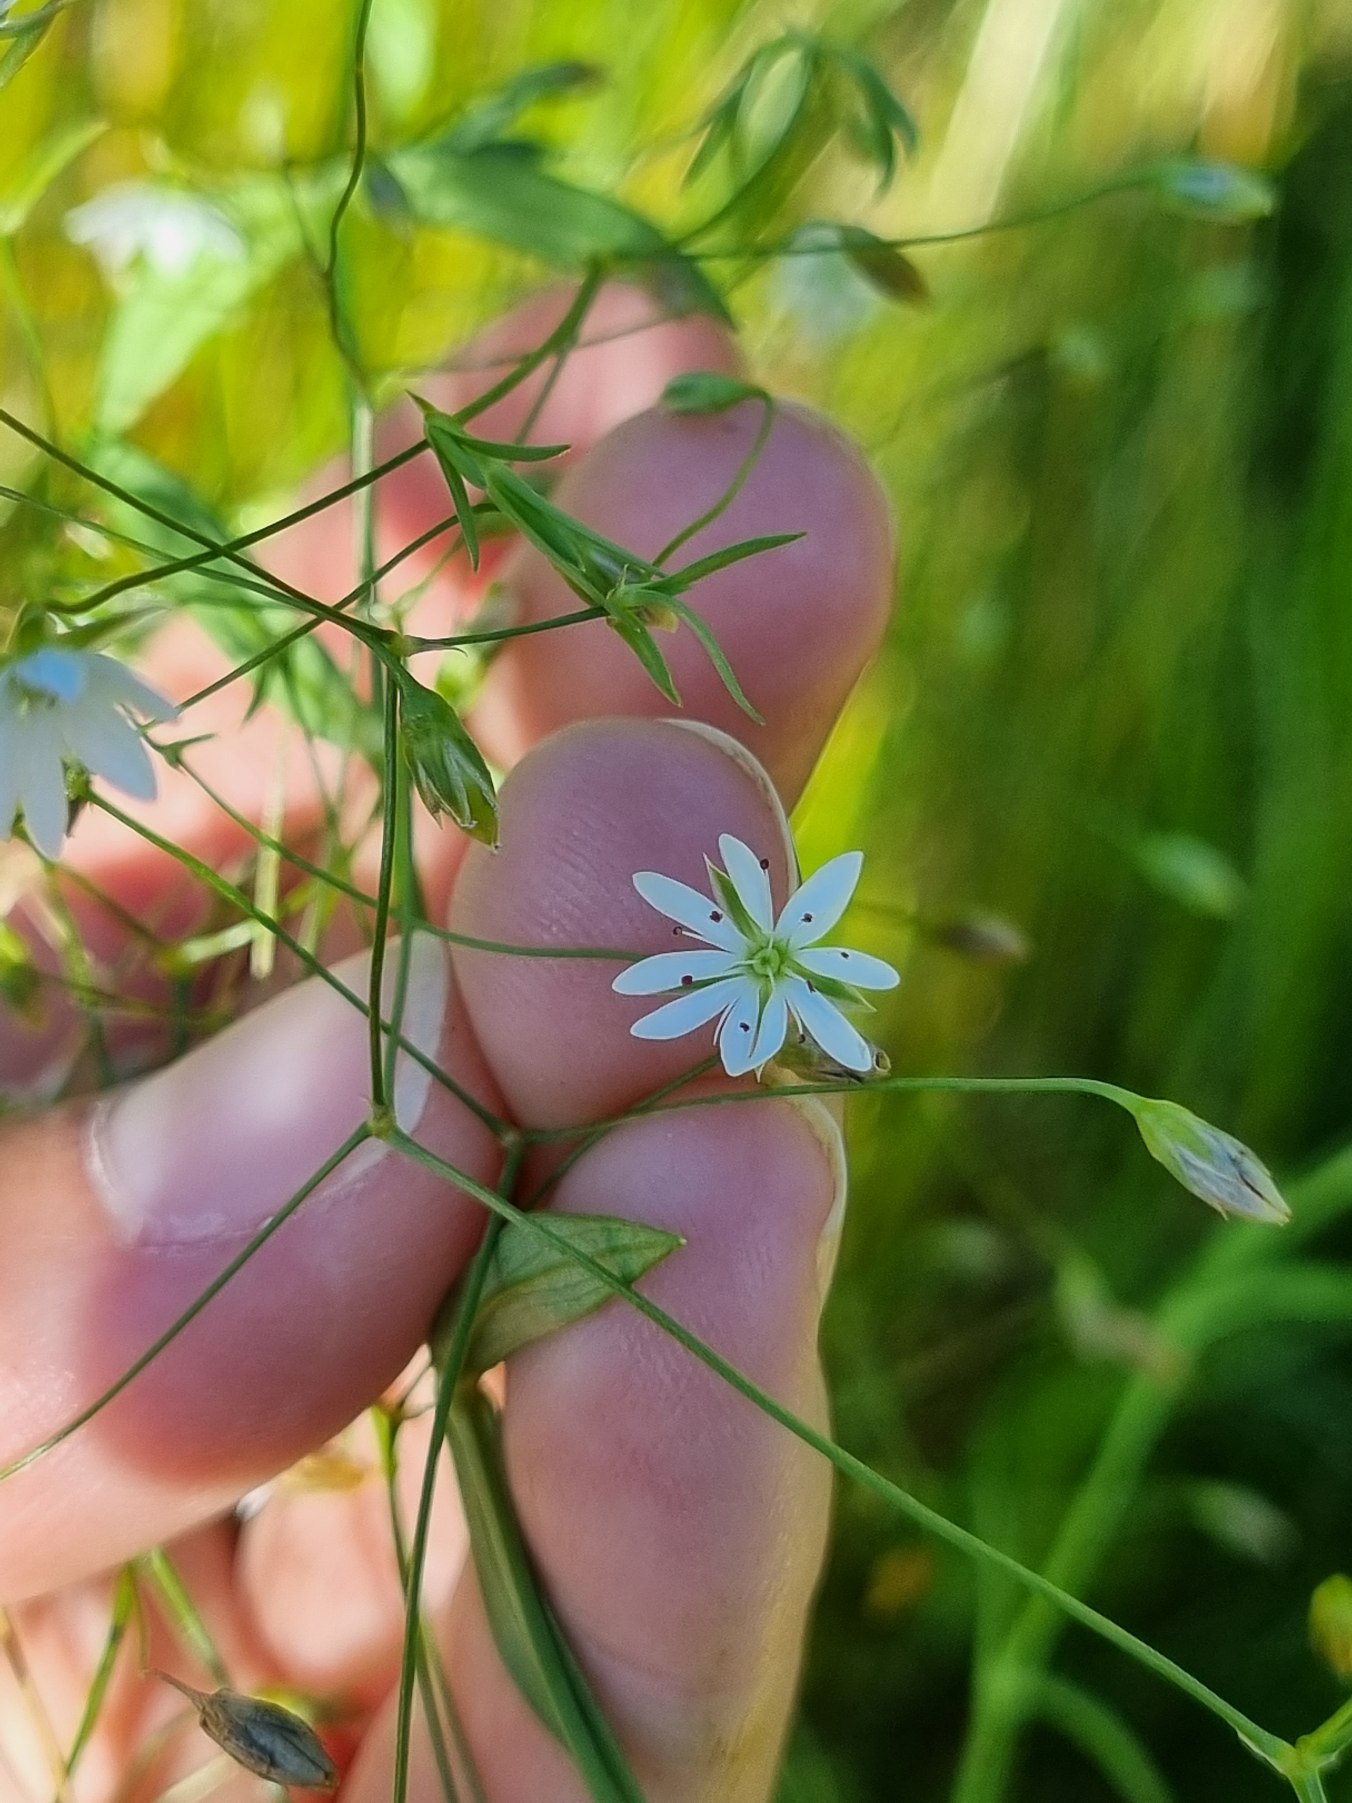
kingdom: Plantae
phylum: Tracheophyta
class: Magnoliopsida
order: Caryophyllales
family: Caryophyllaceae
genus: Stellaria
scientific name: Stellaria graminea
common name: Græsbladet fladstjerne
